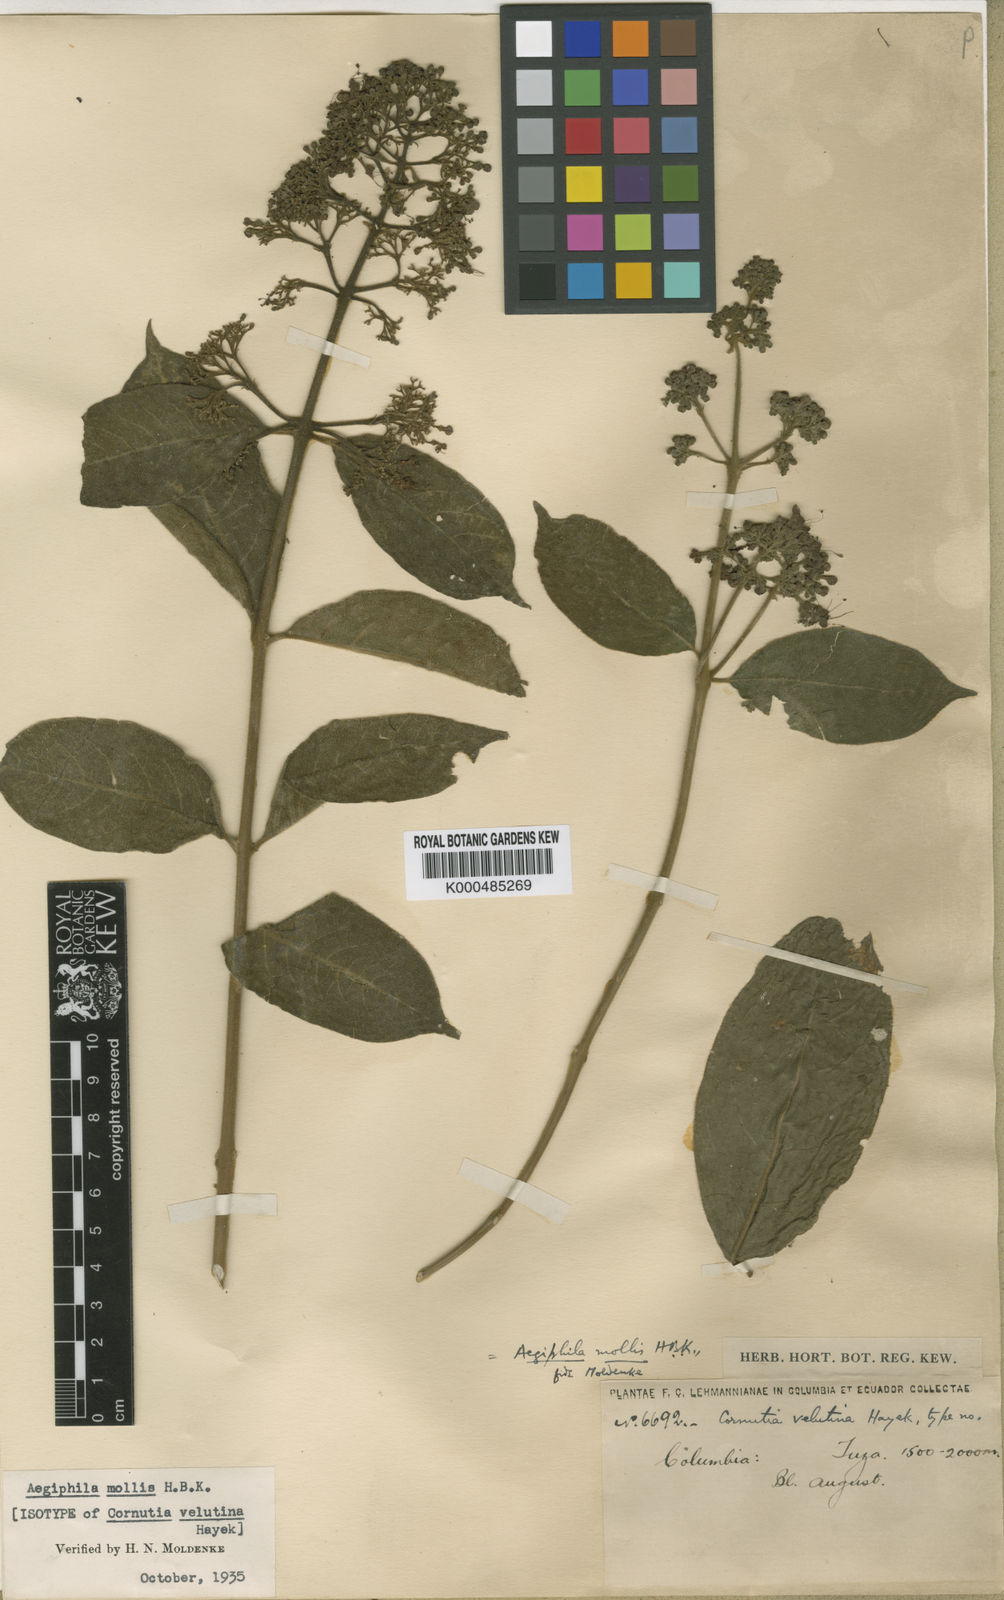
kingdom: Plantae
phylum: Tracheophyta
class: Magnoliopsida
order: Lamiales
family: Lamiaceae
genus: Aegiphila
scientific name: Aegiphila mollis
